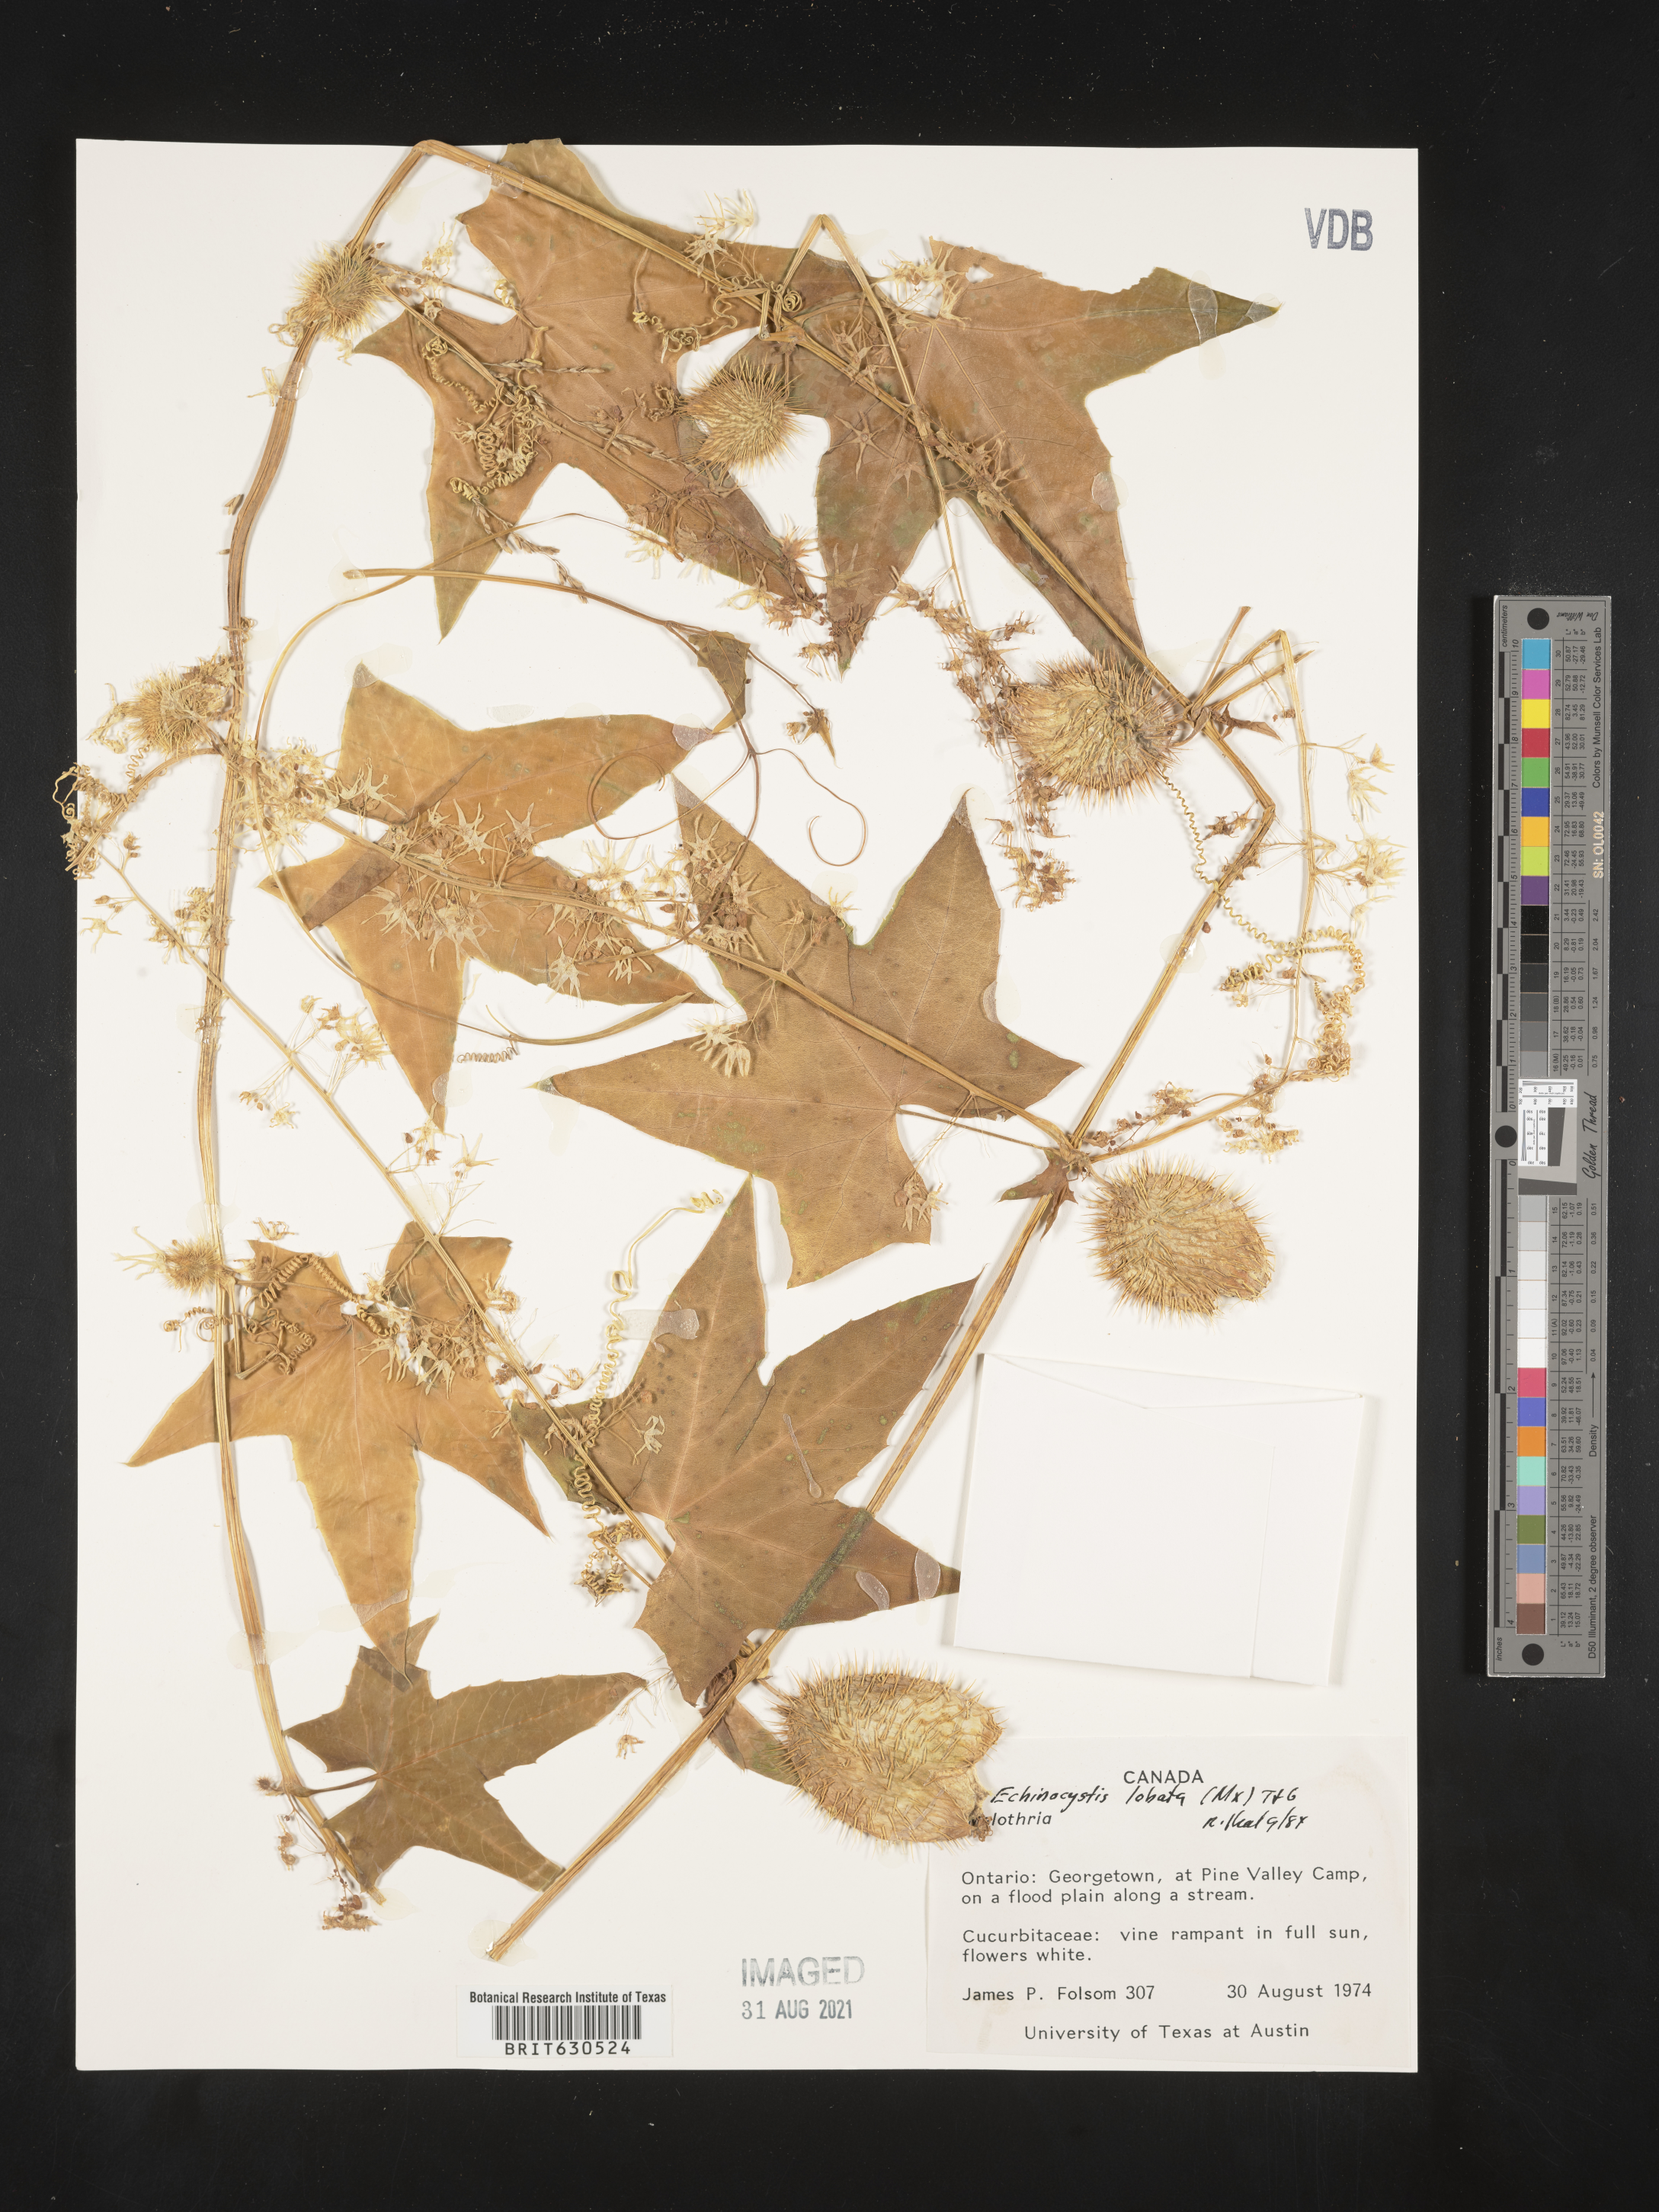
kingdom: Plantae
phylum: Tracheophyta
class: Magnoliopsida
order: Cucurbitales
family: Cucurbitaceae
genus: Echinocystis
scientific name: Echinocystis lobata
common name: Wild cucumber
